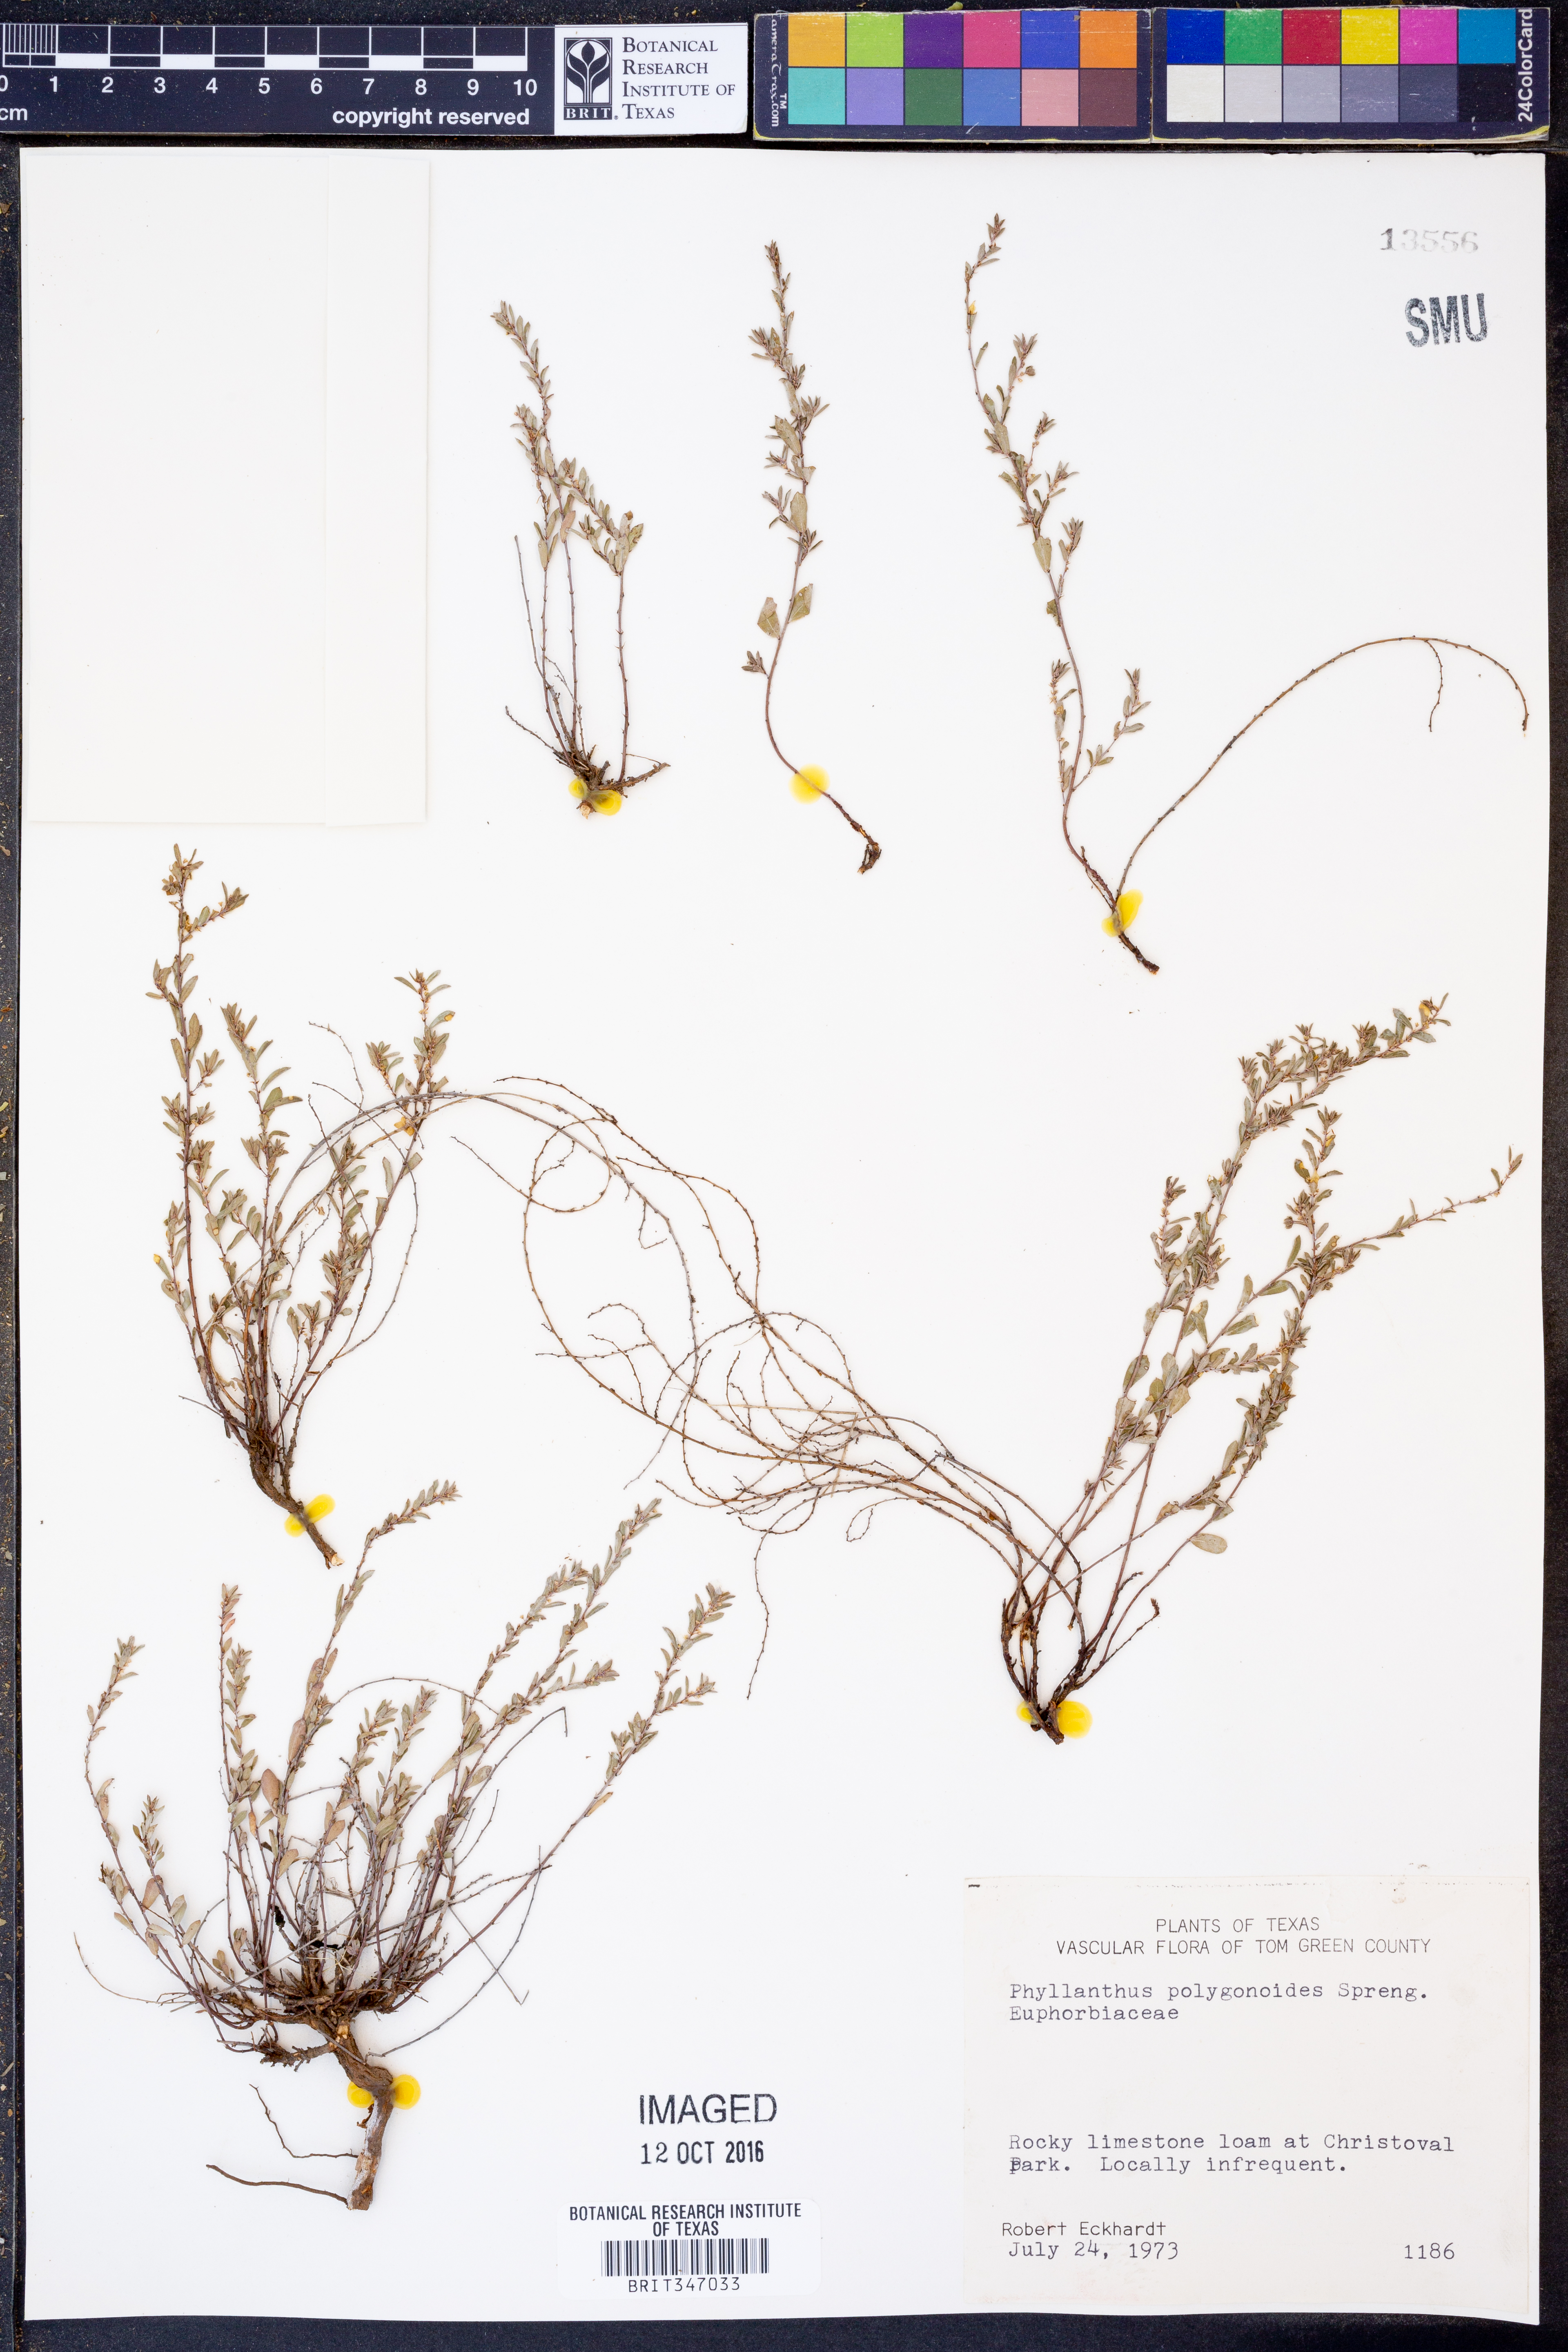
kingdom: Plantae
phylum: Tracheophyta
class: Magnoliopsida
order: Malpighiales
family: Phyllanthaceae
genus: Phyllanthus
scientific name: Phyllanthus polygonoides
